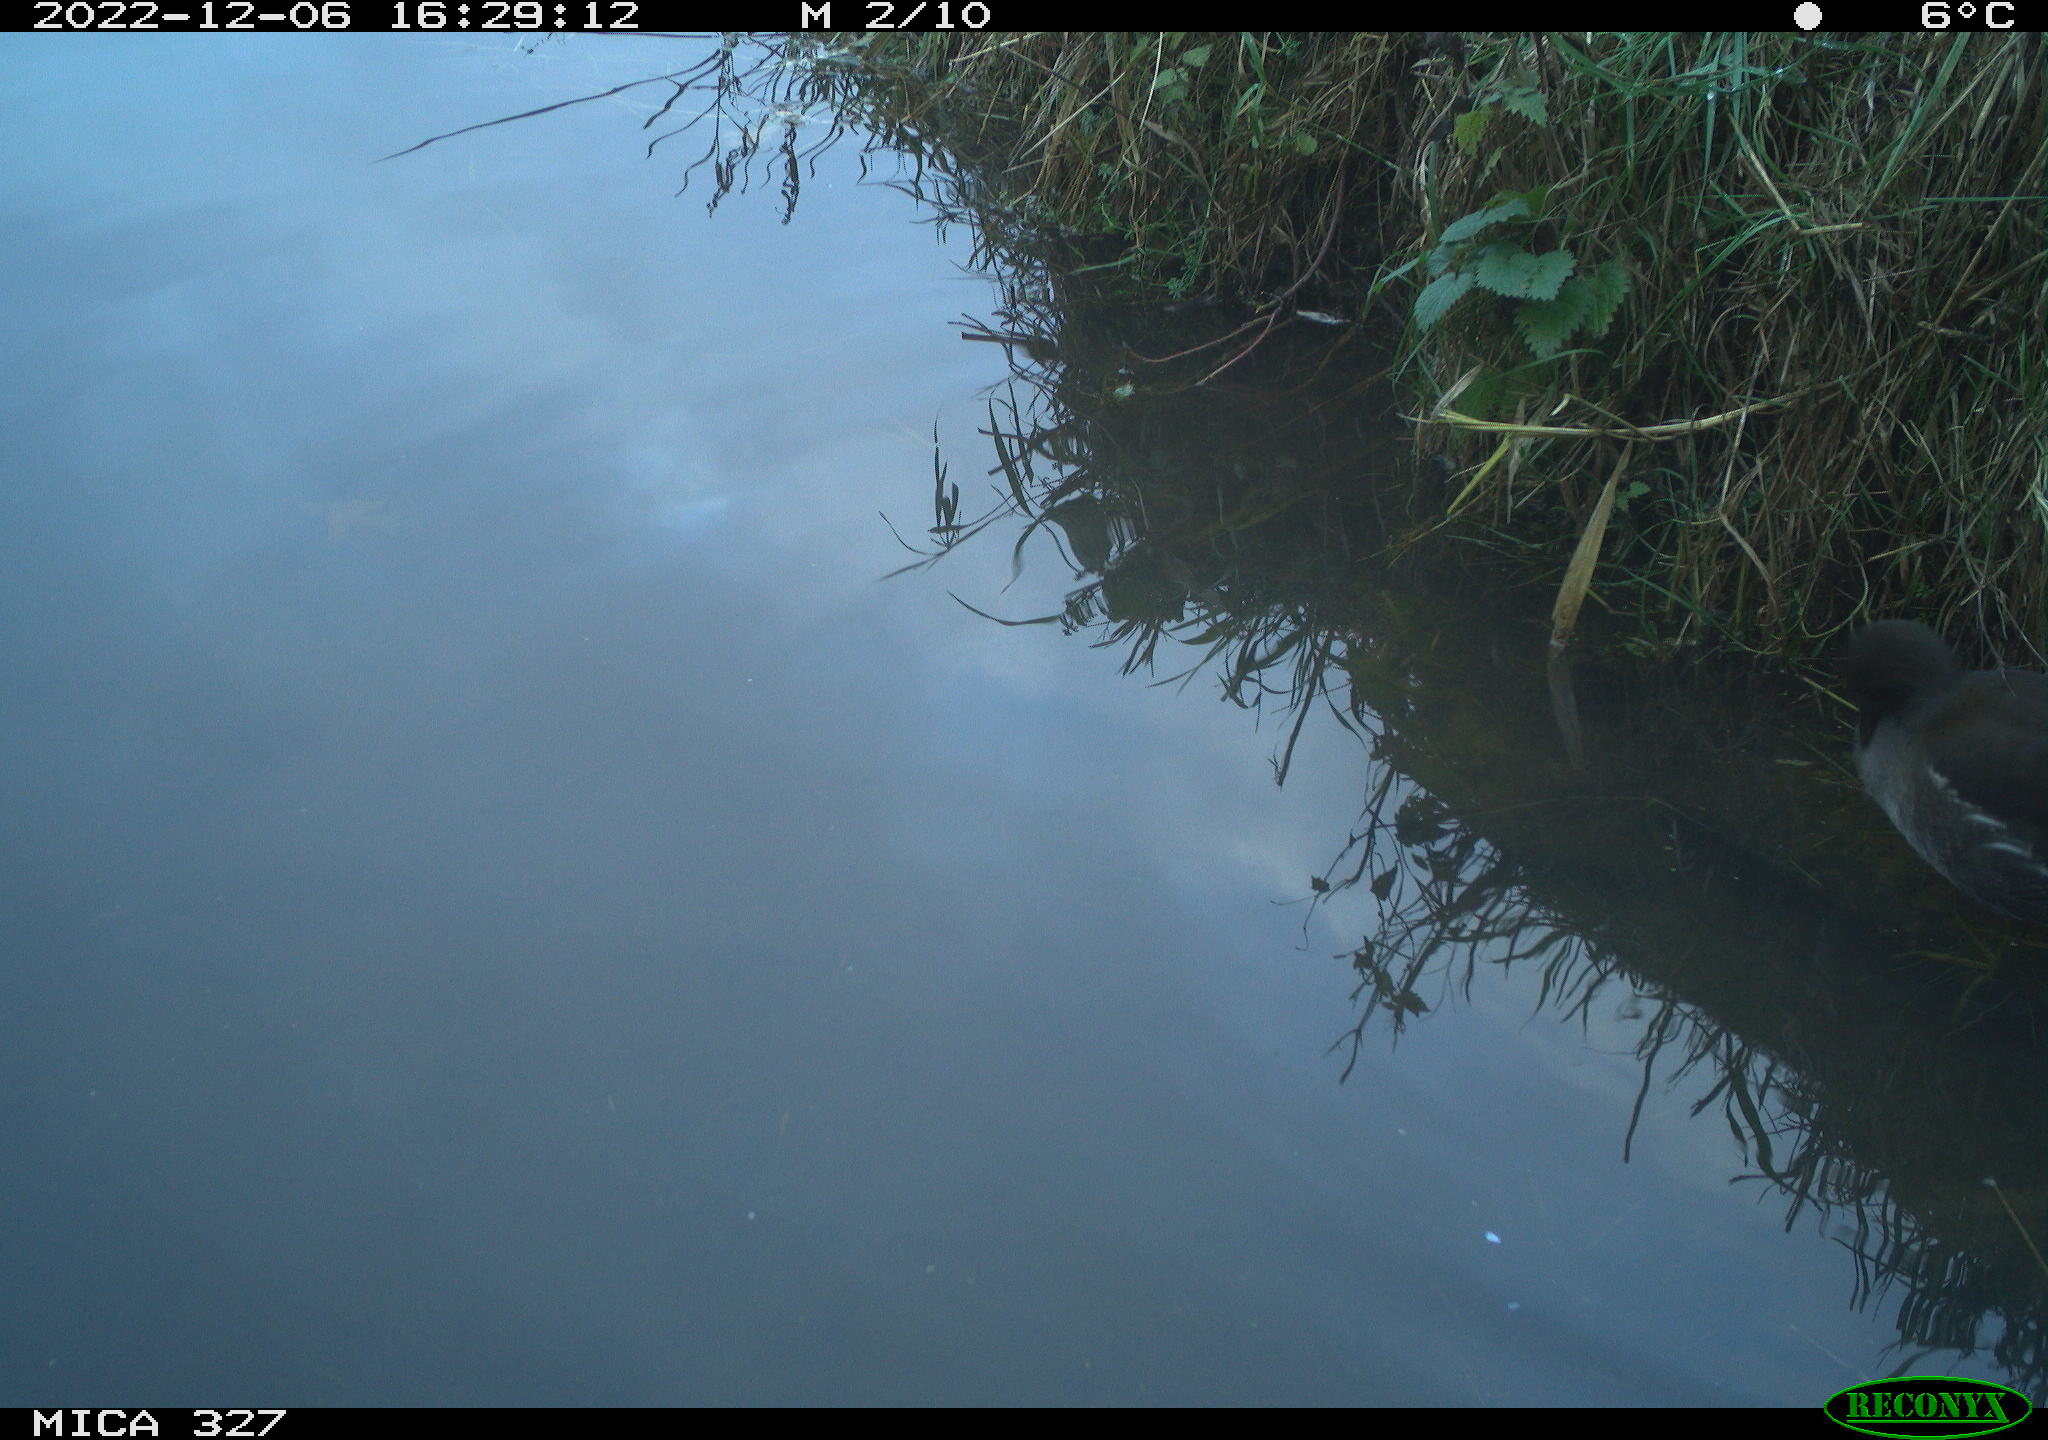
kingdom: Animalia
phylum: Chordata
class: Aves
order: Gruiformes
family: Rallidae
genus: Gallinula
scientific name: Gallinula chloropus
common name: Common moorhen
